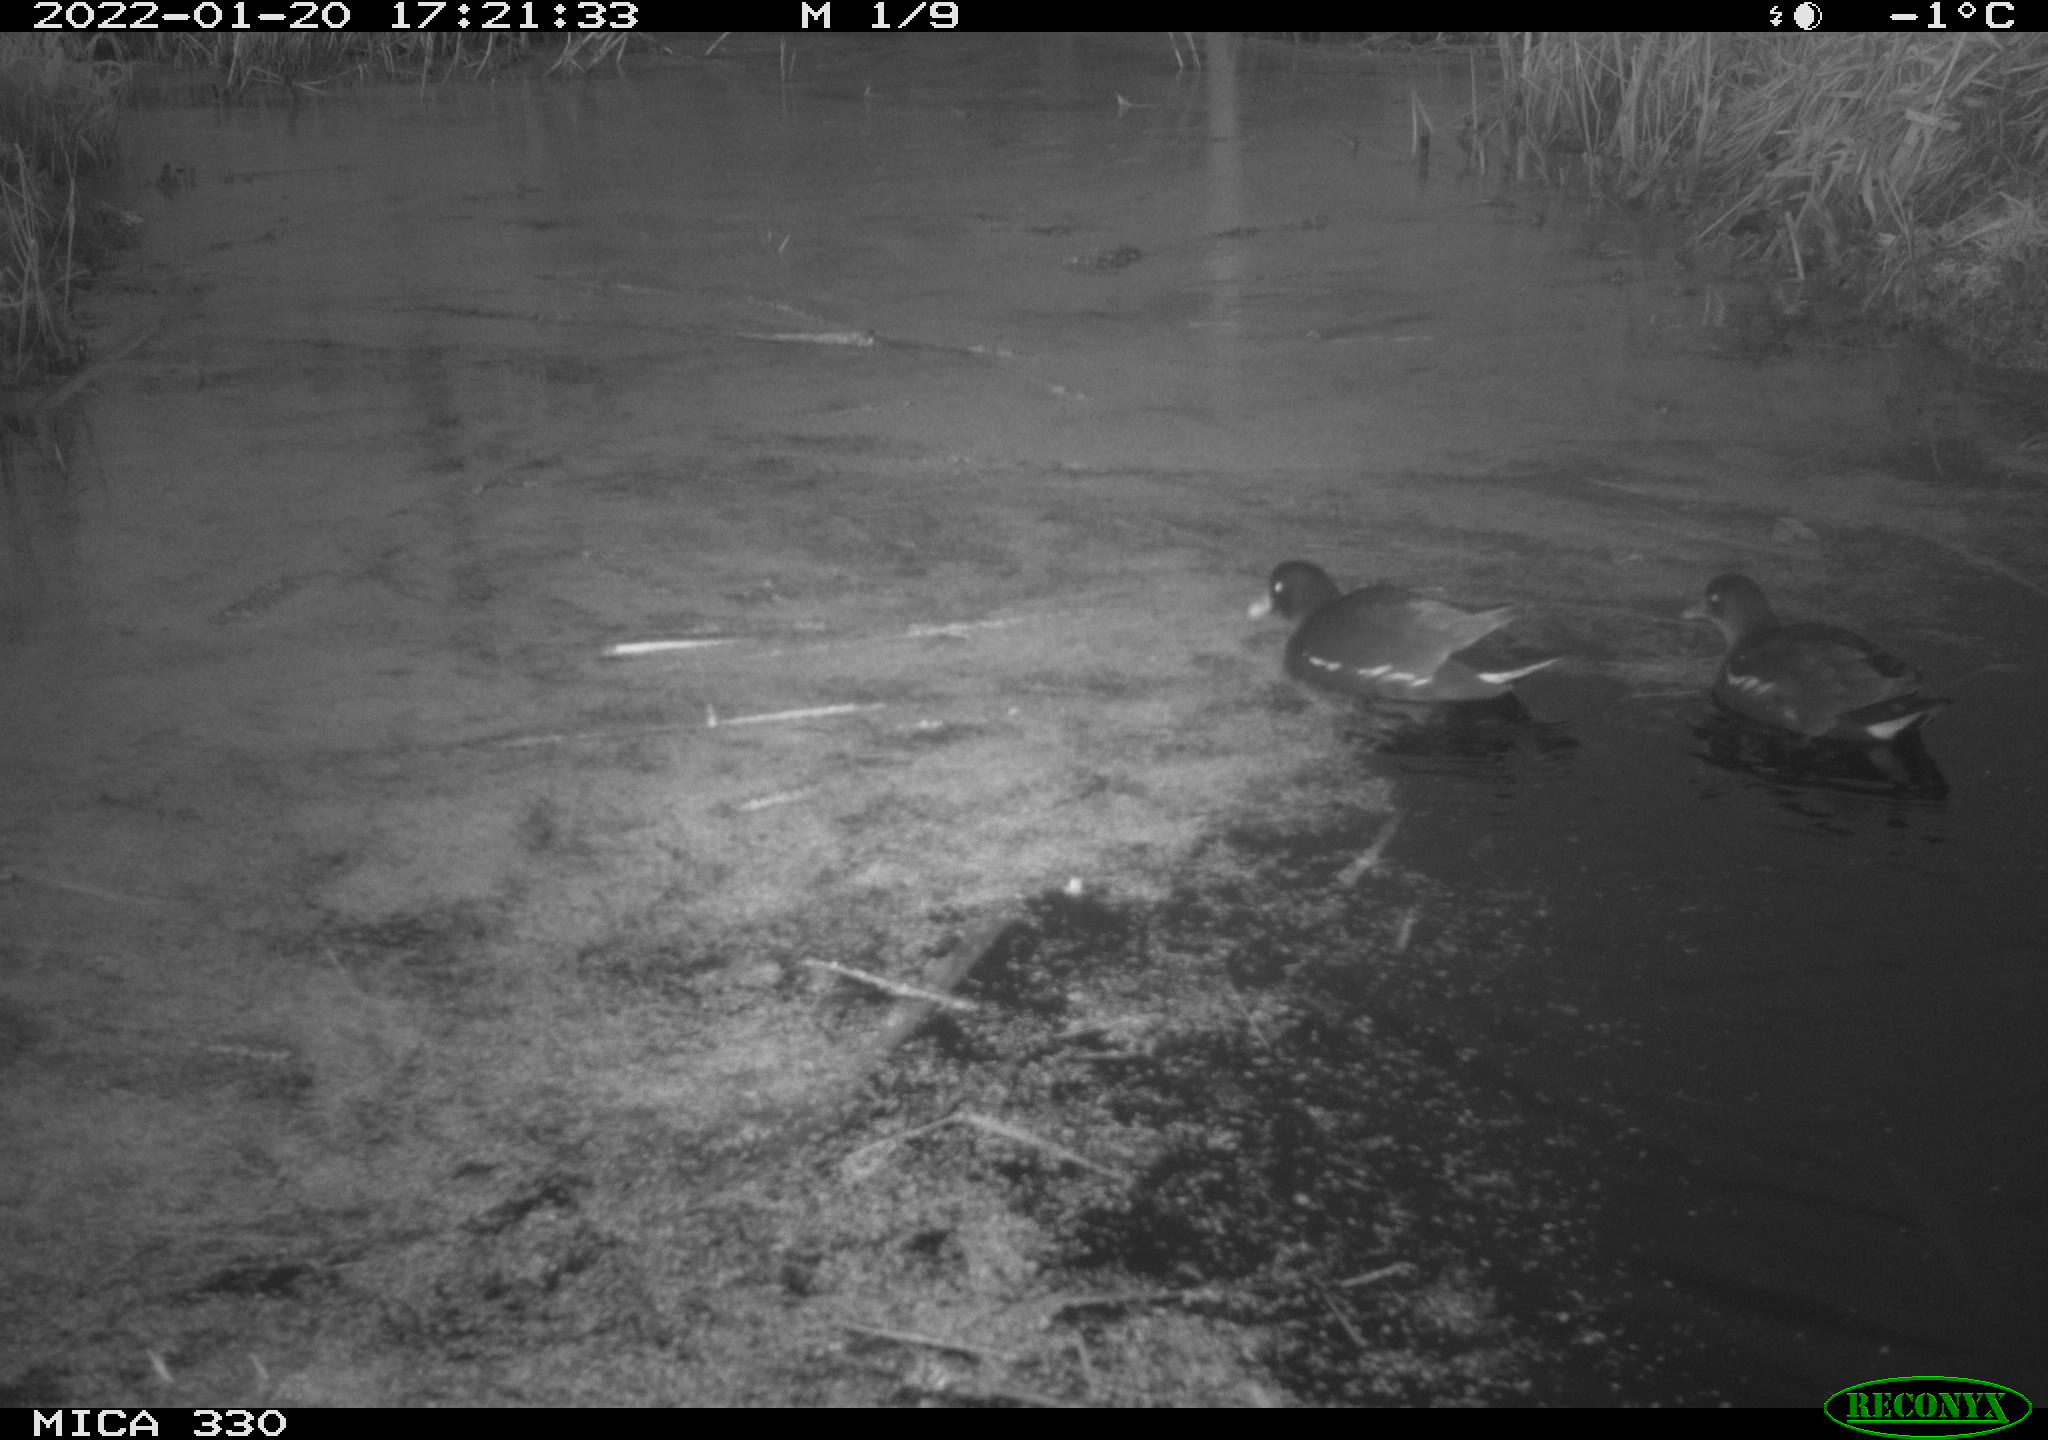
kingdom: Animalia
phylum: Chordata
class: Aves
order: Gruiformes
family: Rallidae
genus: Gallinula
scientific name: Gallinula chloropus
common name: Common moorhen
